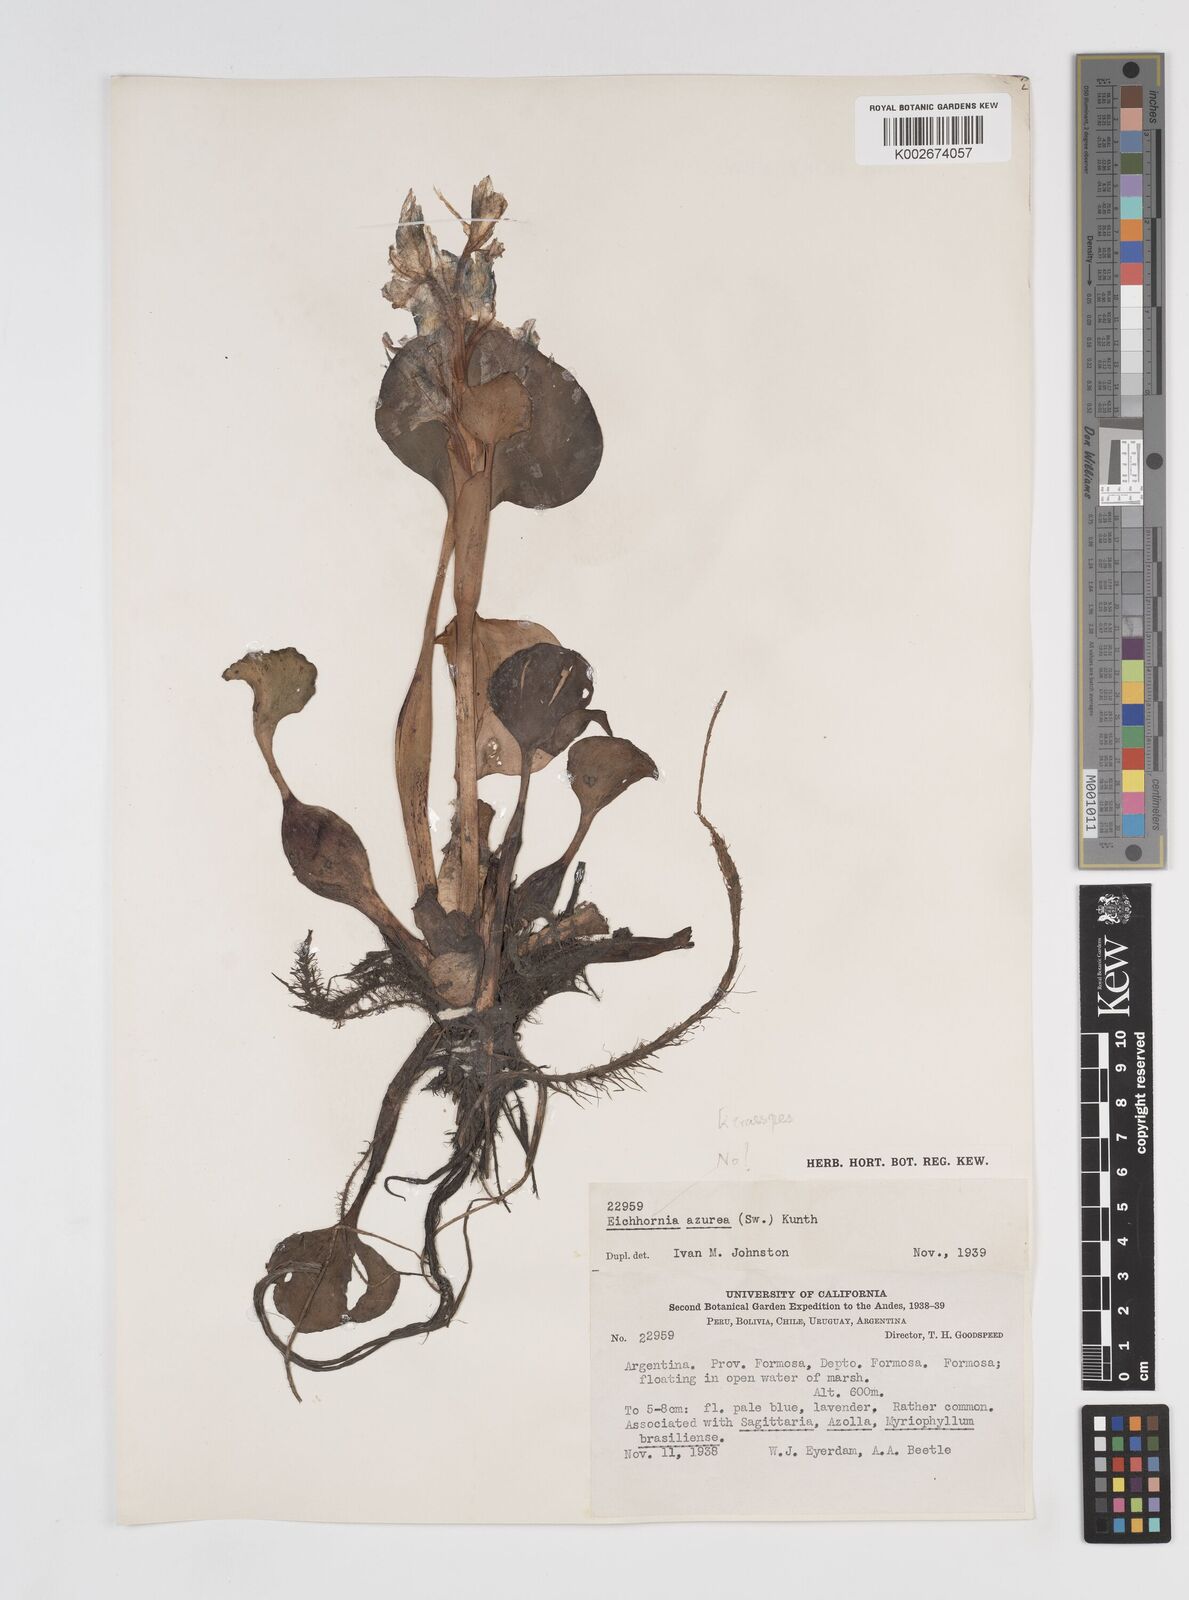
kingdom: Plantae
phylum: Tracheophyta
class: Liliopsida
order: Commelinales
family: Pontederiaceae
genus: Pontederia
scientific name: Pontederia crassipes
